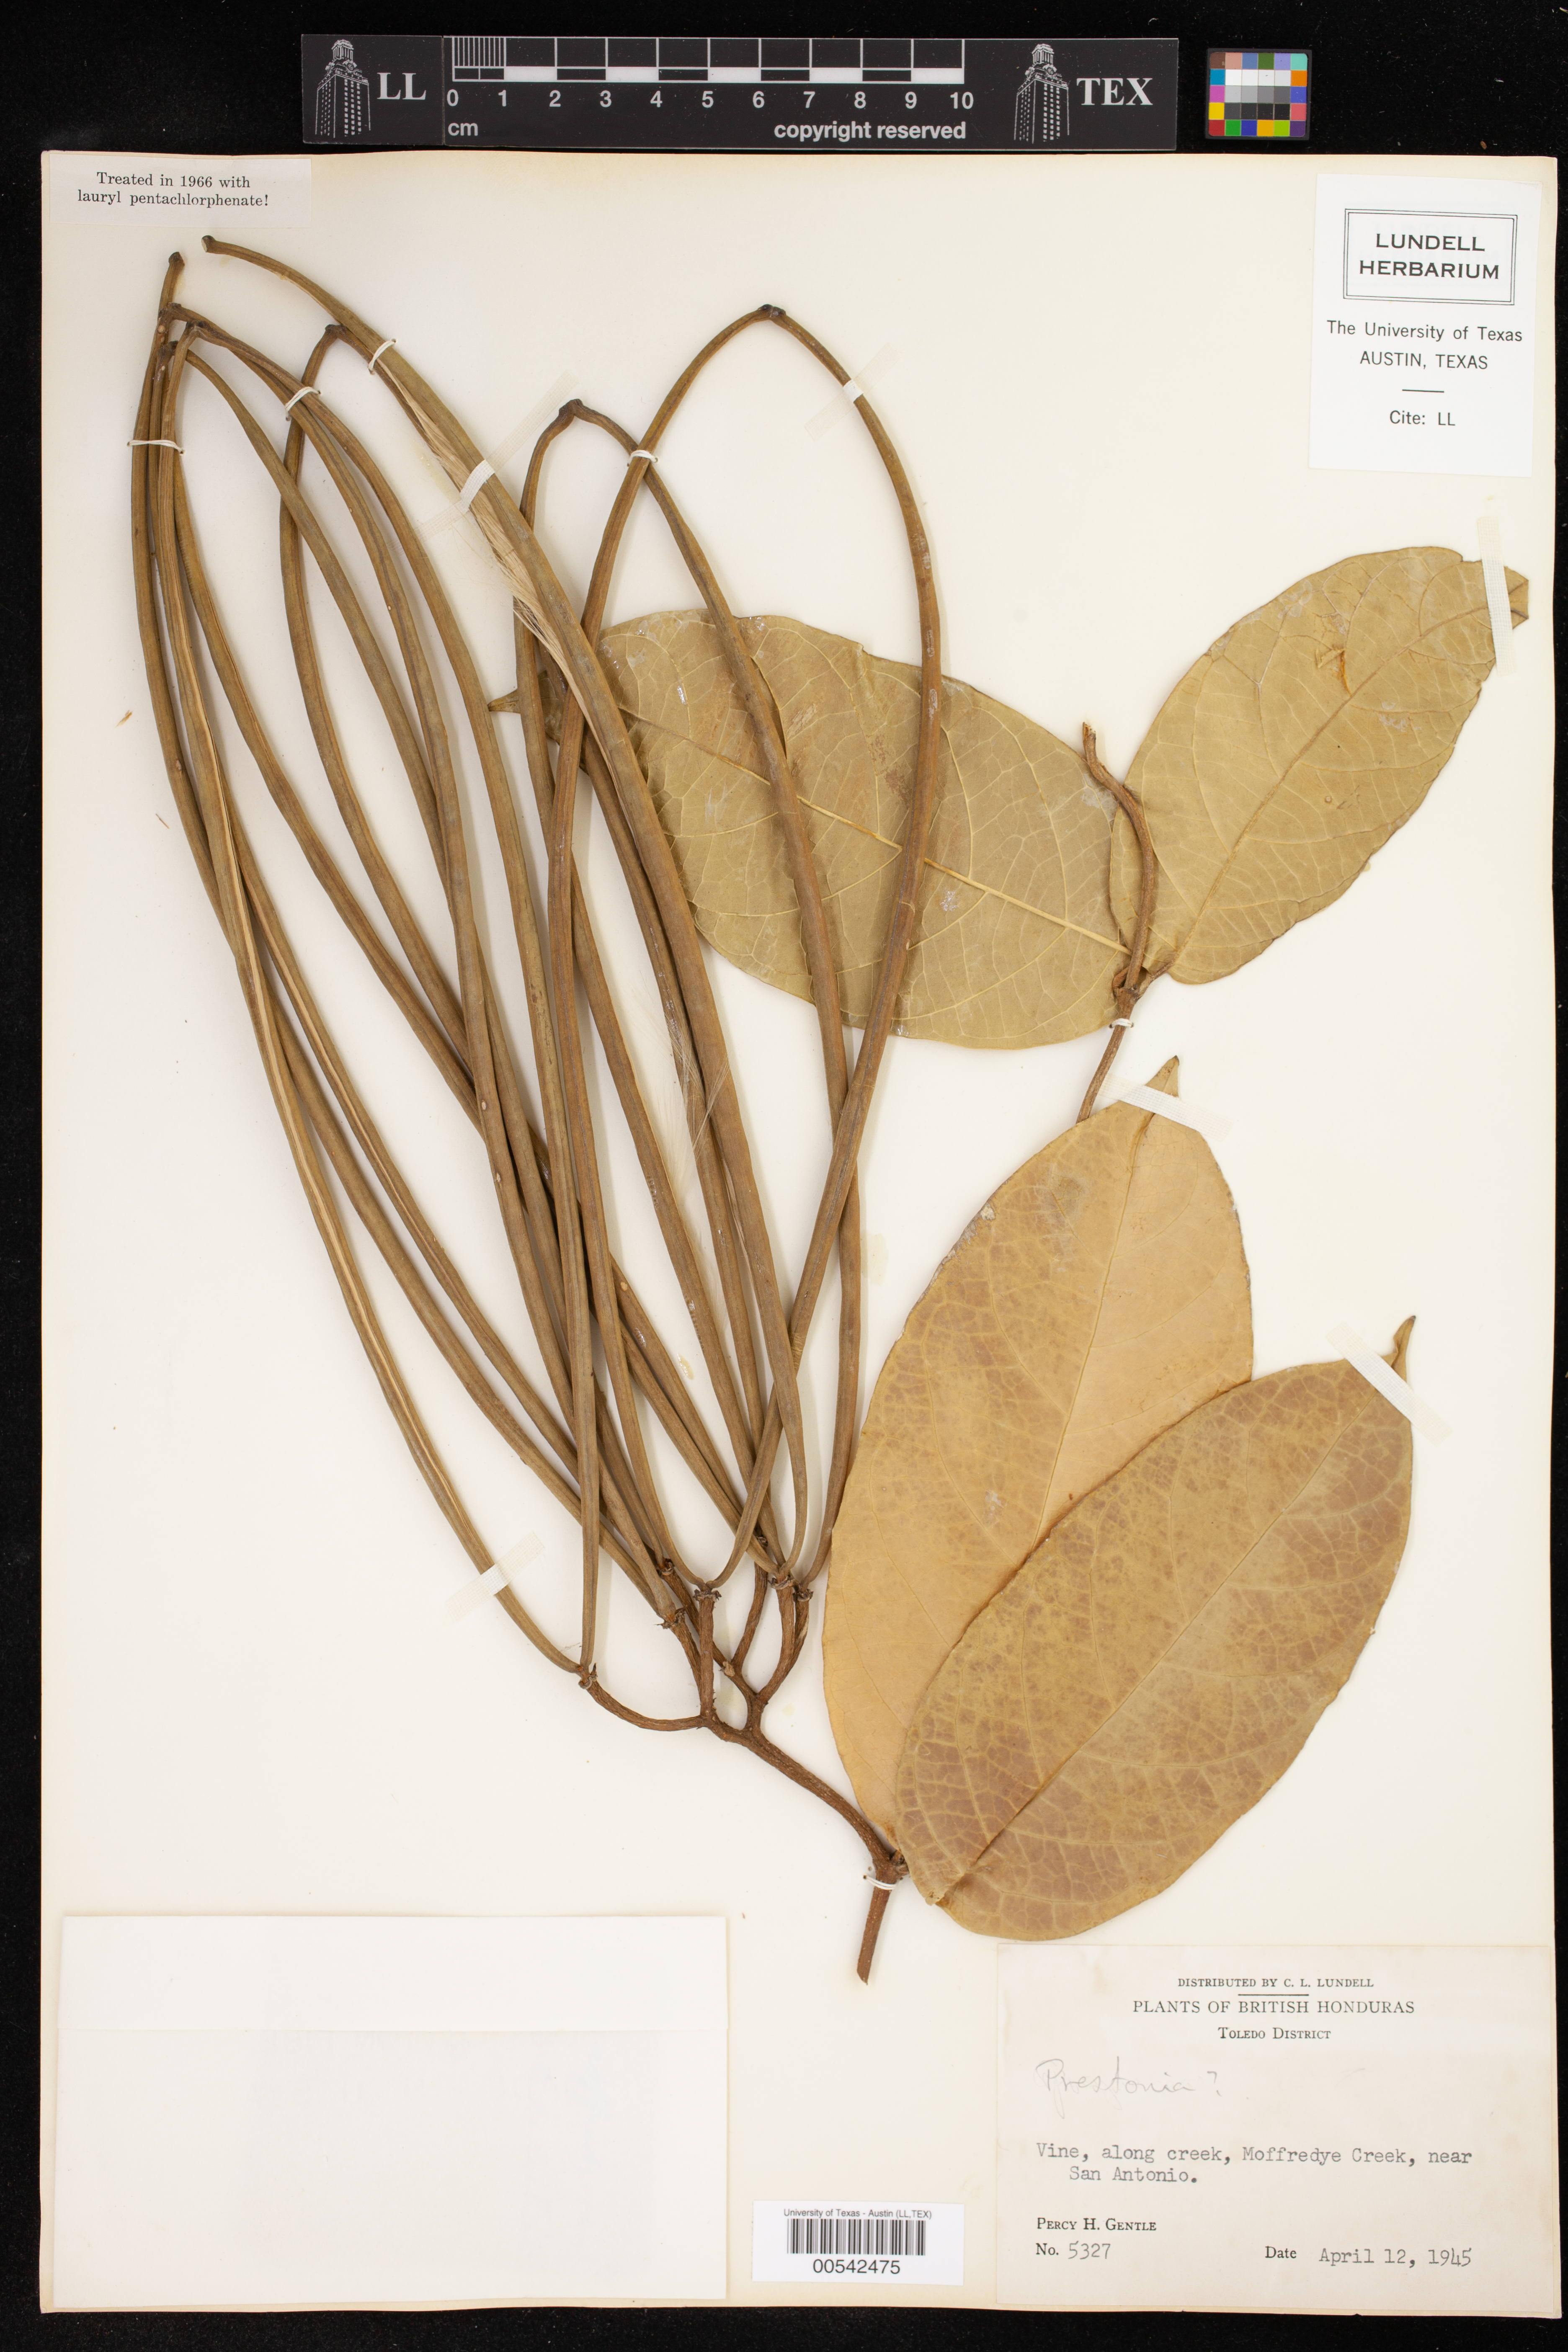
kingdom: Plantae
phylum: Tracheophyta
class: Magnoliopsida
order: Gentianales
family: Apocynaceae
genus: Prestonia
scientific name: Prestonia
